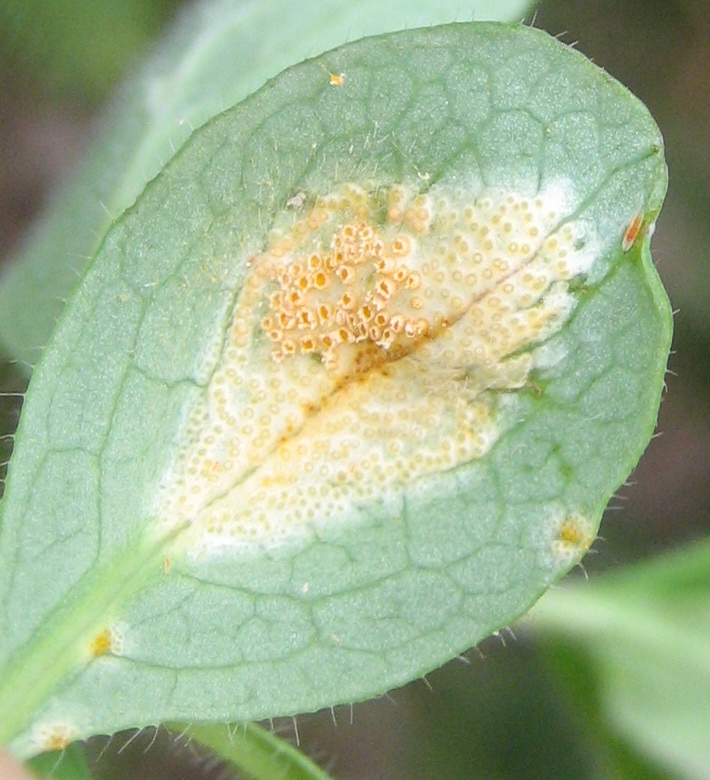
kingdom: Fungi
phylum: Basidiomycota
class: Pucciniomycetes
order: Pucciniales
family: Pucciniaceae
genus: Puccinia
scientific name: Puccinia festucae
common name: gedeblad-tvecellerust
